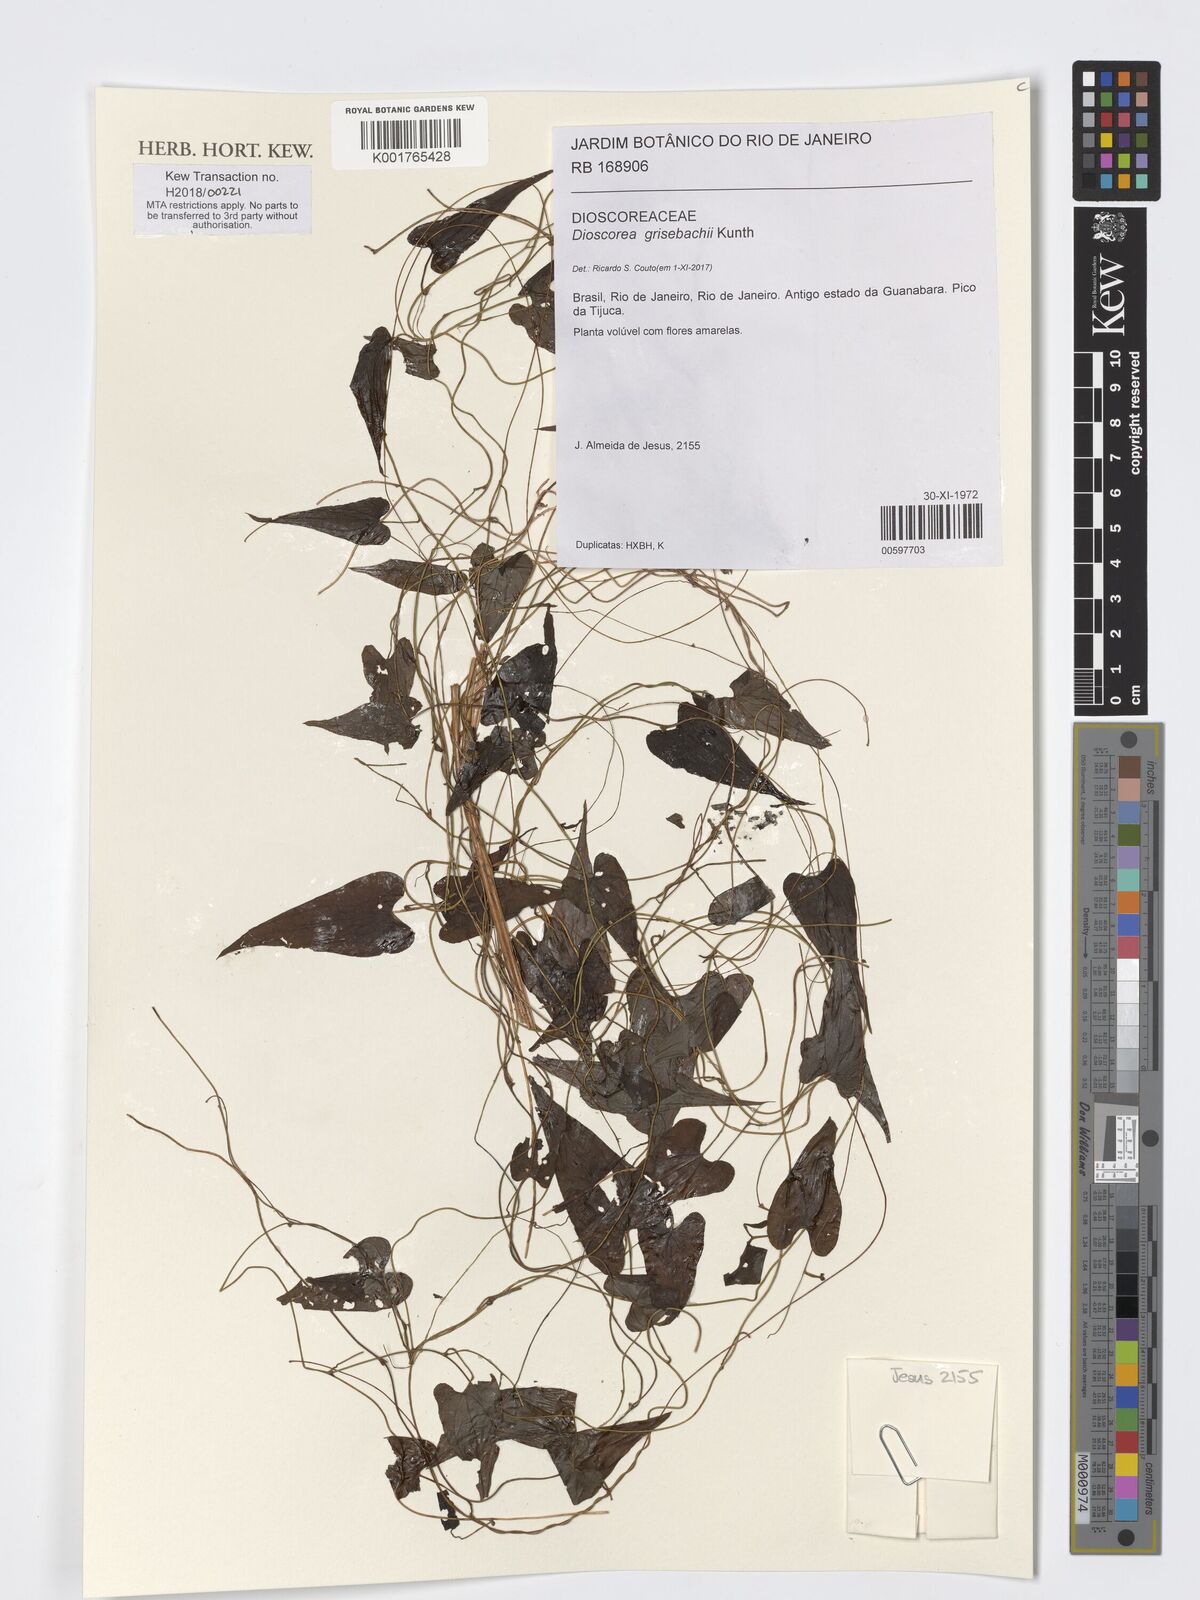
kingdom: Plantae
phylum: Tracheophyta
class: Liliopsida
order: Dioscoreales
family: Dioscoreaceae
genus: Dioscorea
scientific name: Dioscorea grisebachii
